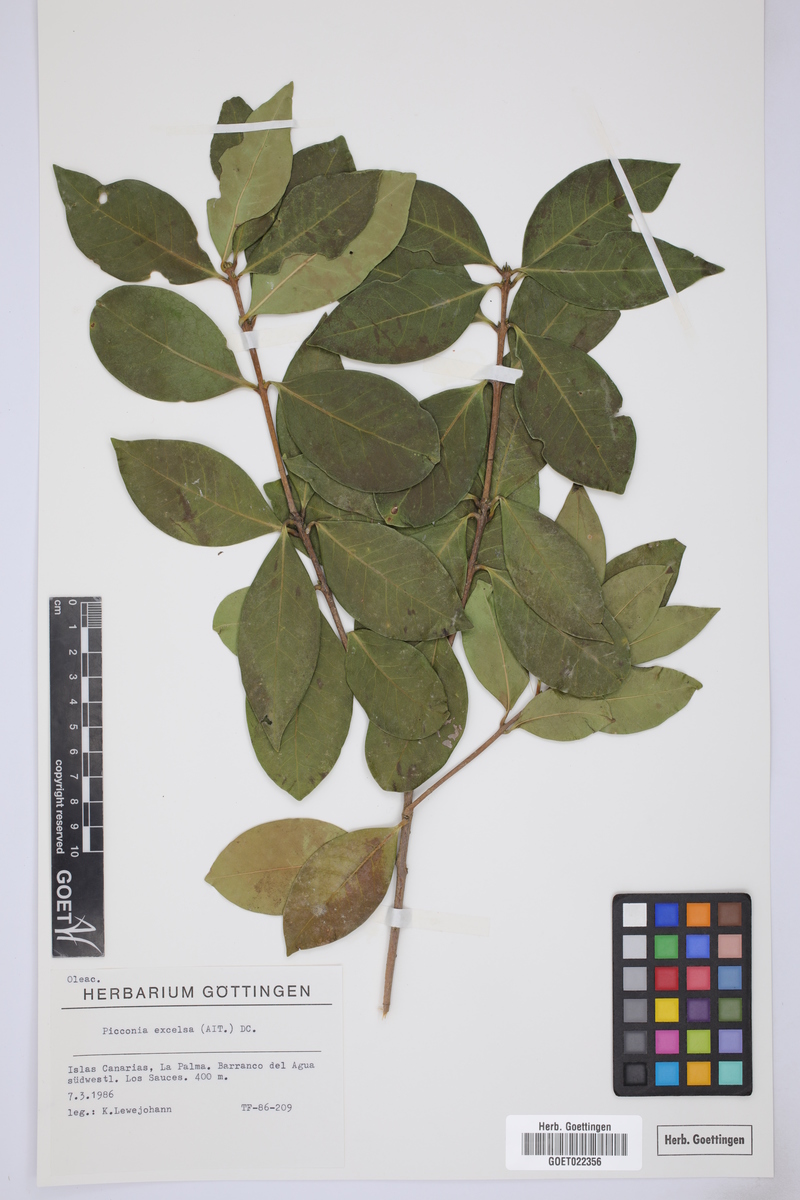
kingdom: Plantae
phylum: Tracheophyta
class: Magnoliopsida
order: Lamiales
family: Oleaceae
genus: Picconia
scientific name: Picconia excelsa
